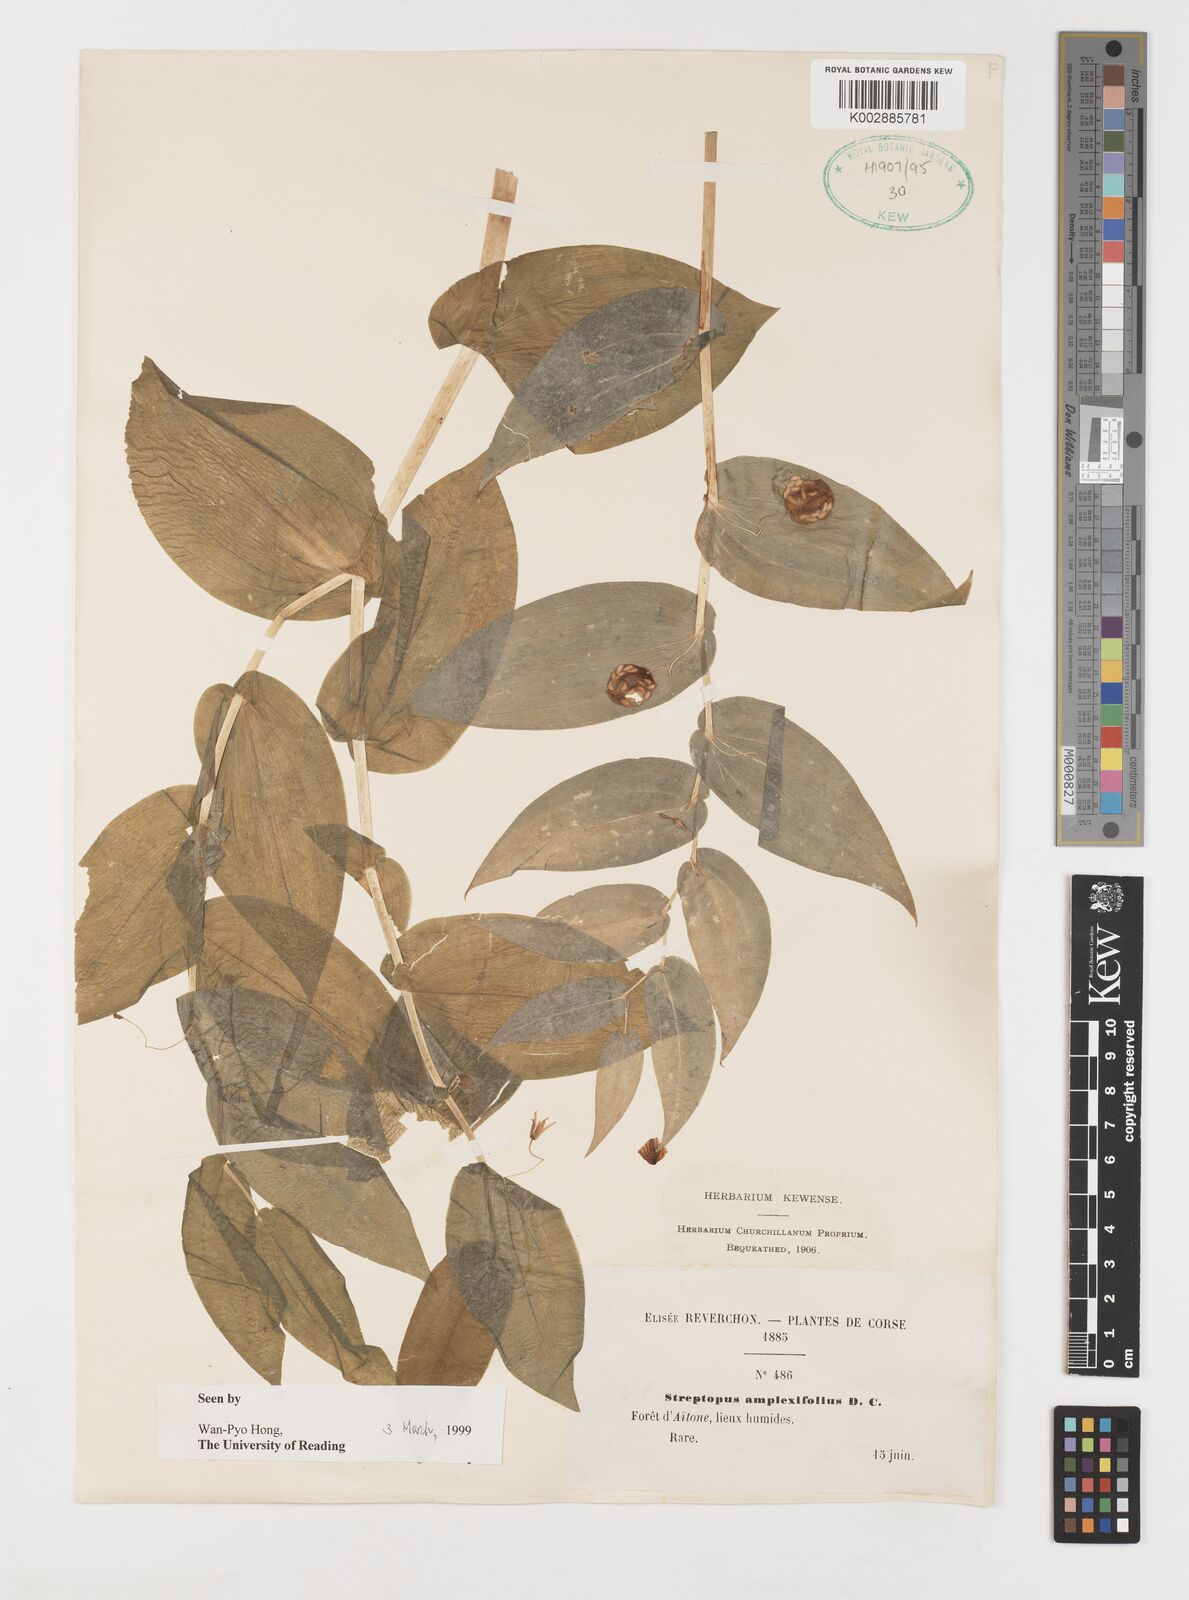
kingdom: Plantae
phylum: Tracheophyta
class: Liliopsida
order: Liliales
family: Liliaceae
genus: Streptopus
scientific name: Streptopus amplexifolius
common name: Clasp twisted stalk
